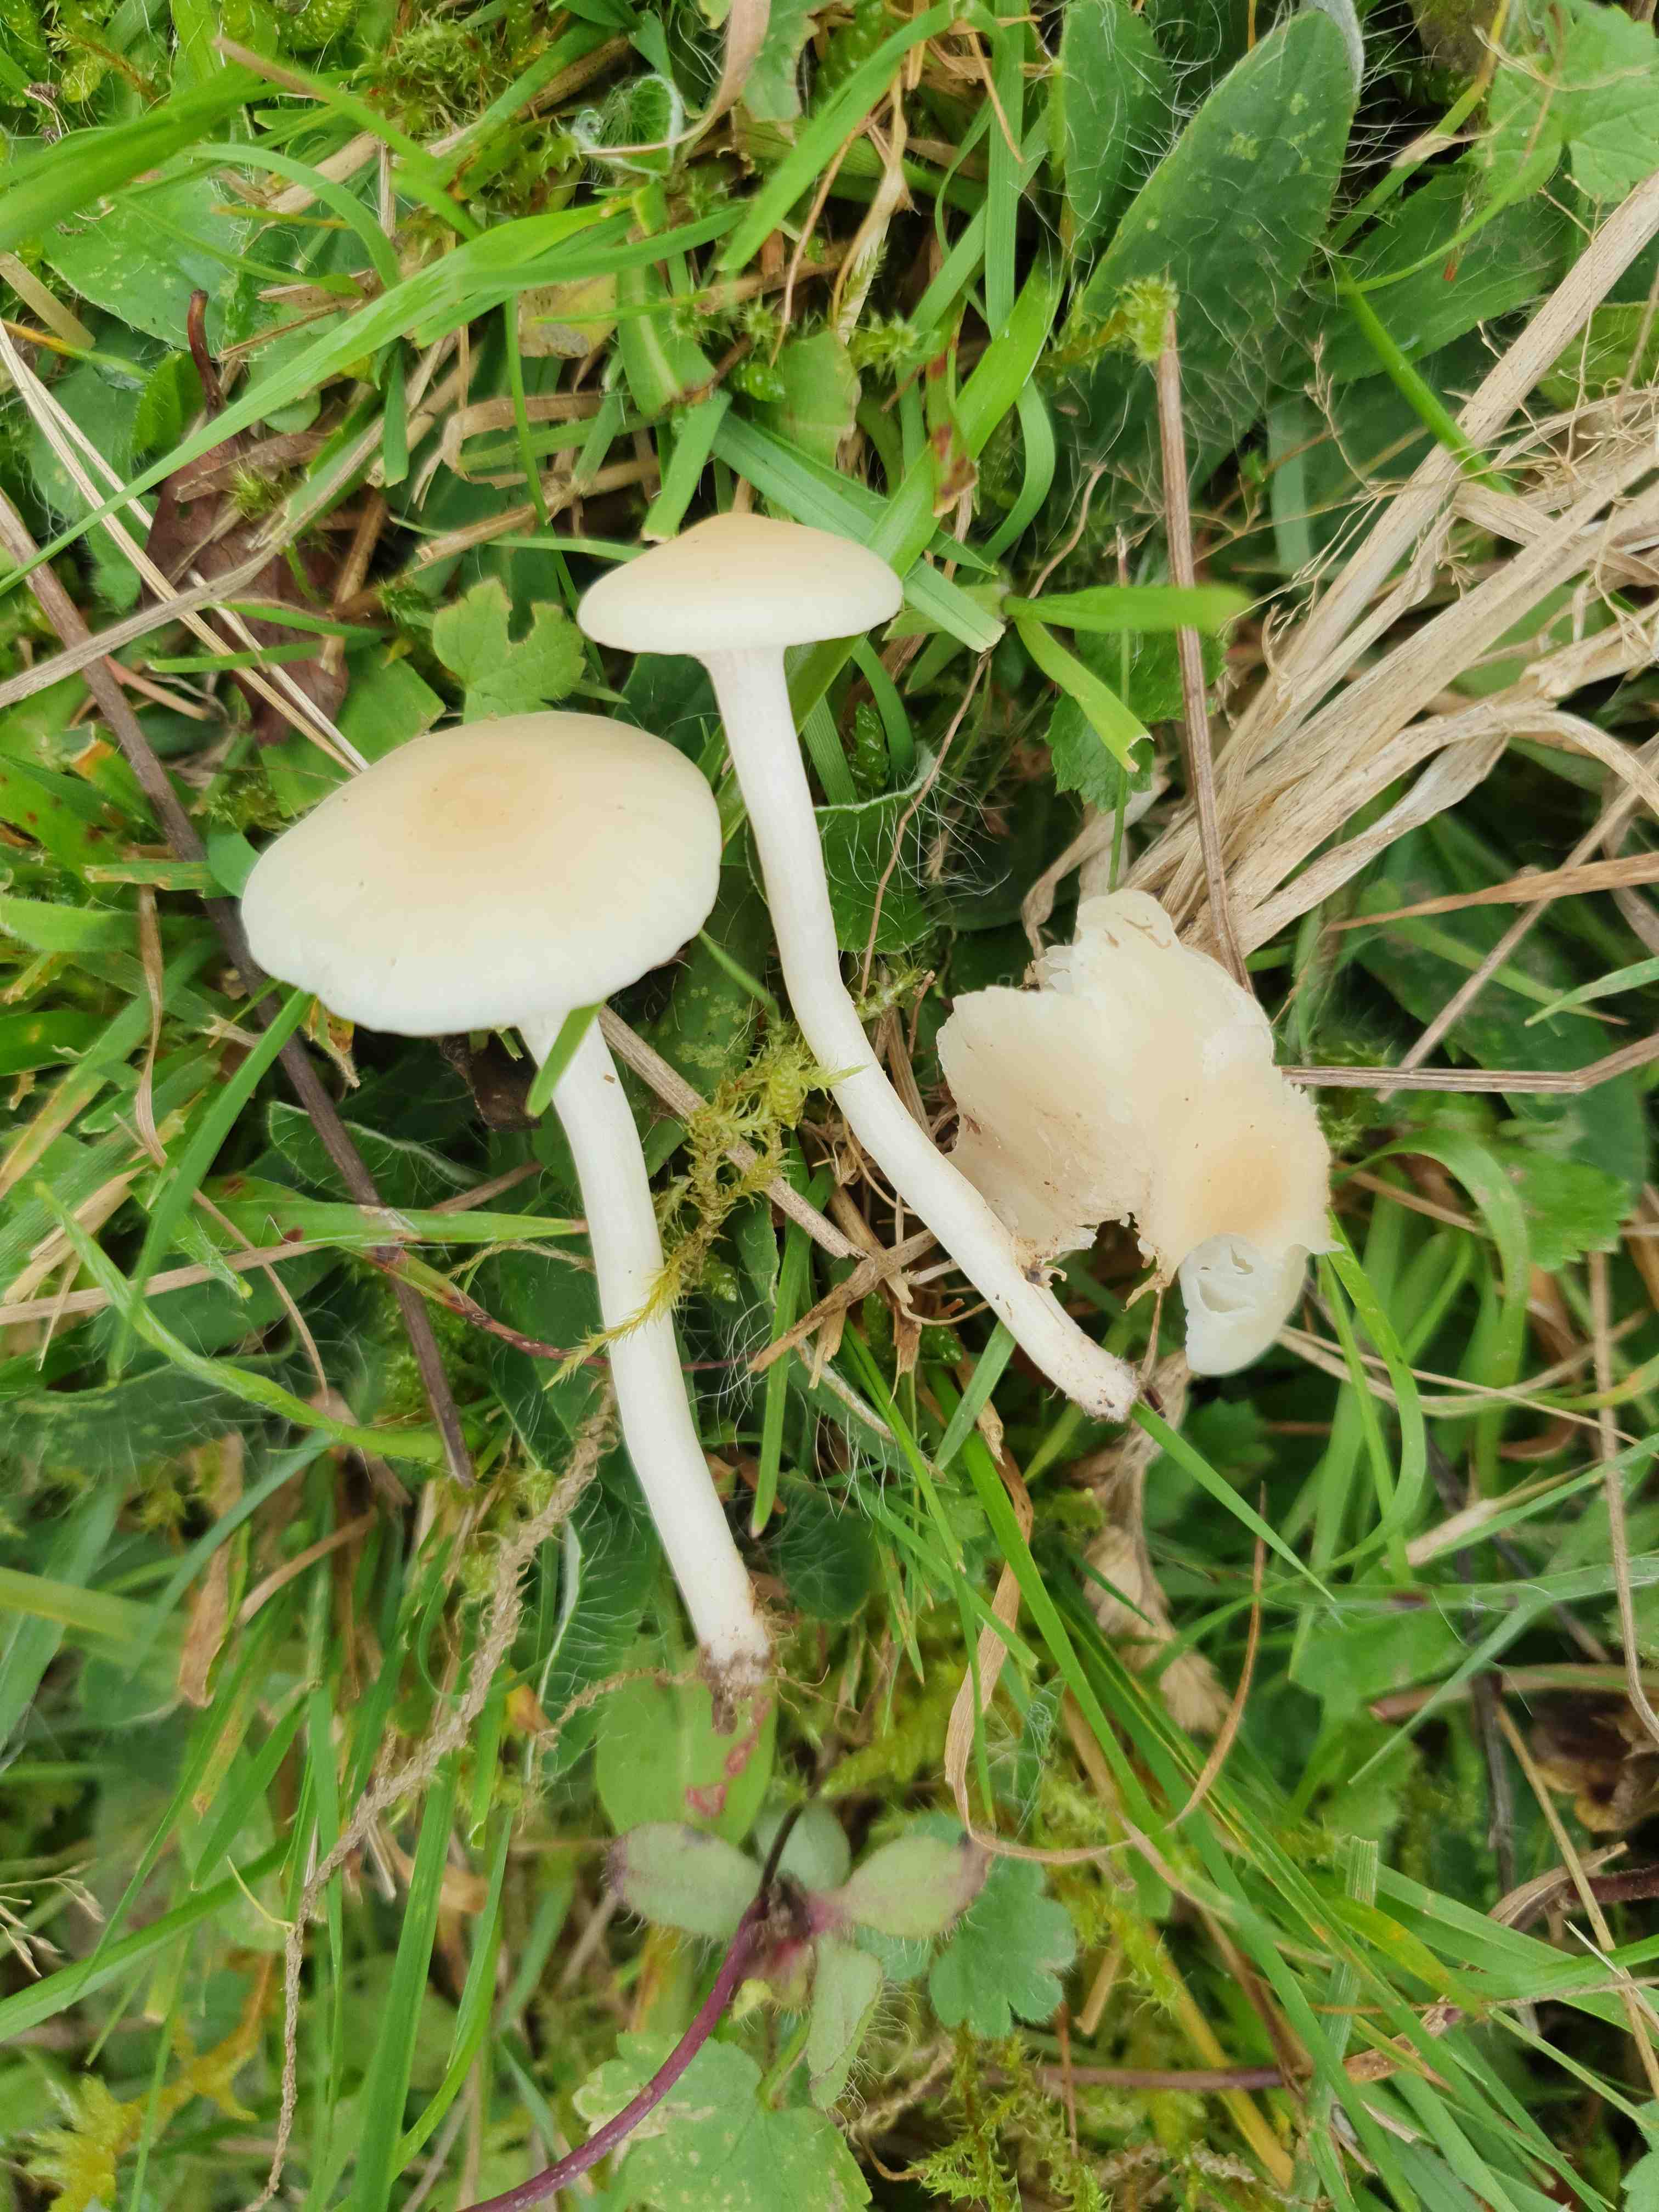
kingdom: Fungi
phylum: Basidiomycota
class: Agaricomycetes
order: Agaricales
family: Hygrophoraceae
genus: Cuphophyllus
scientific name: Cuphophyllus russocoriaceus
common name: ruslæder-vokshat
